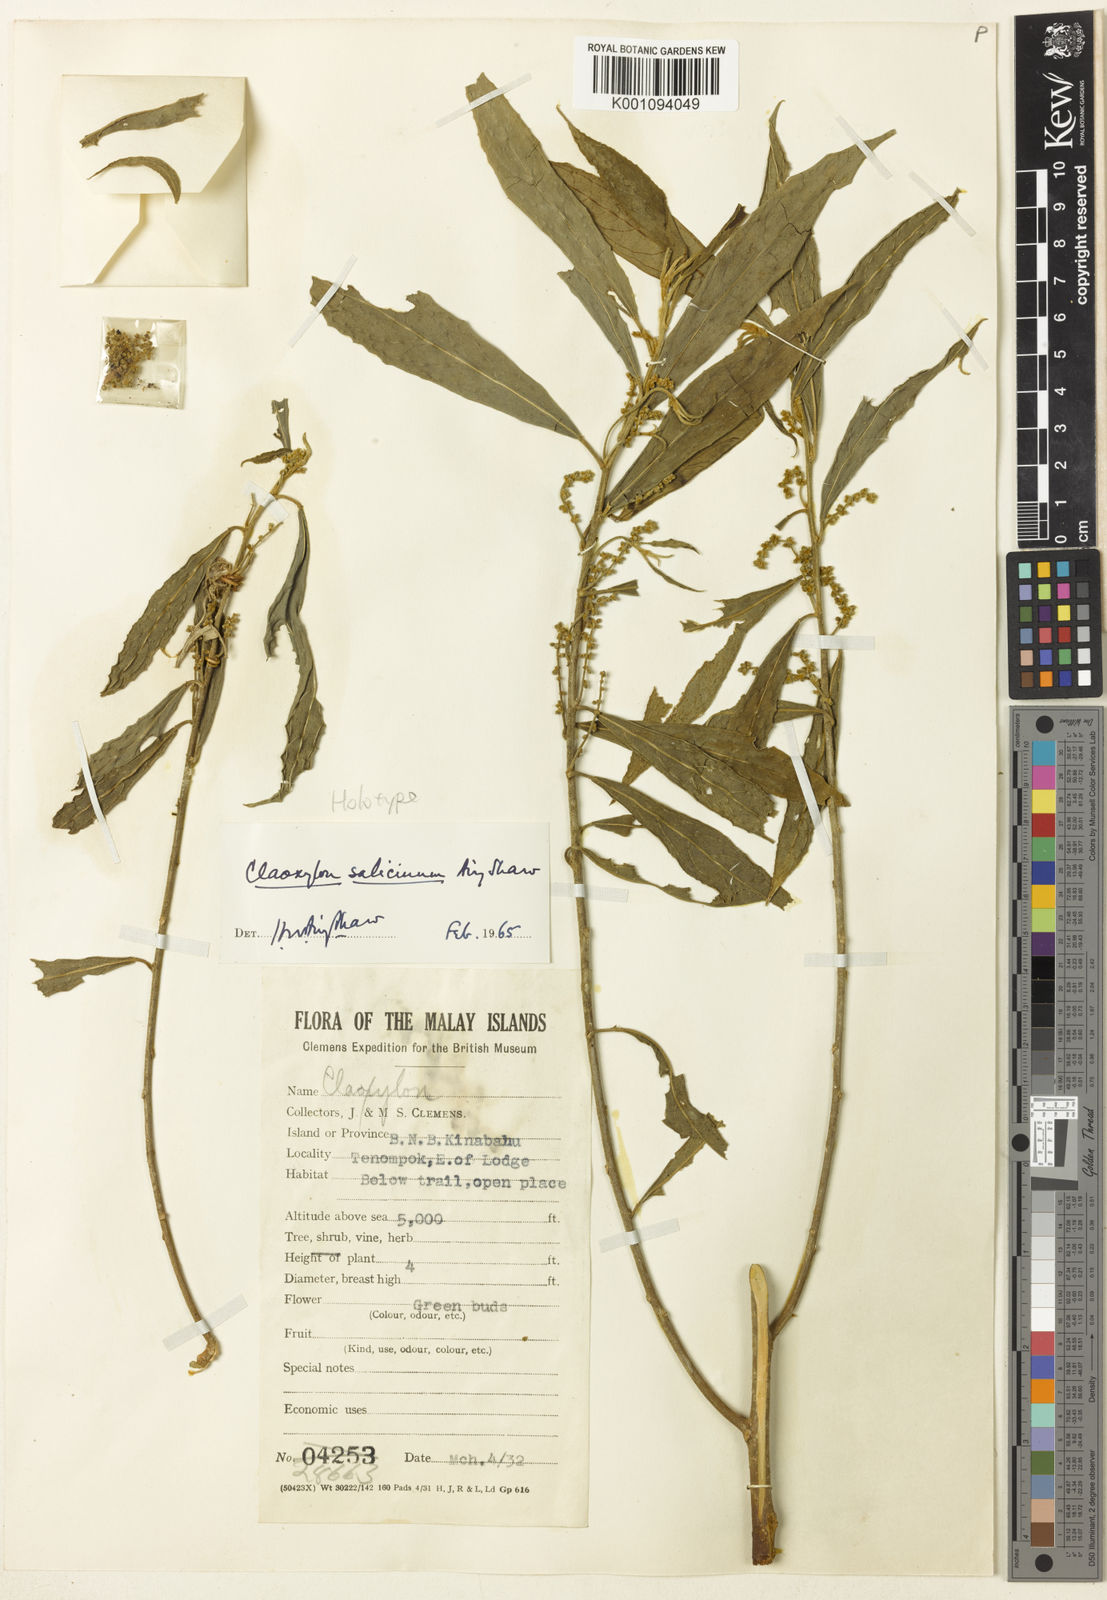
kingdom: Plantae
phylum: Tracheophyta
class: Magnoliopsida
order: Malpighiales
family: Euphorbiaceae
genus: Claoxylon
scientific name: Claoxylon salicinum
